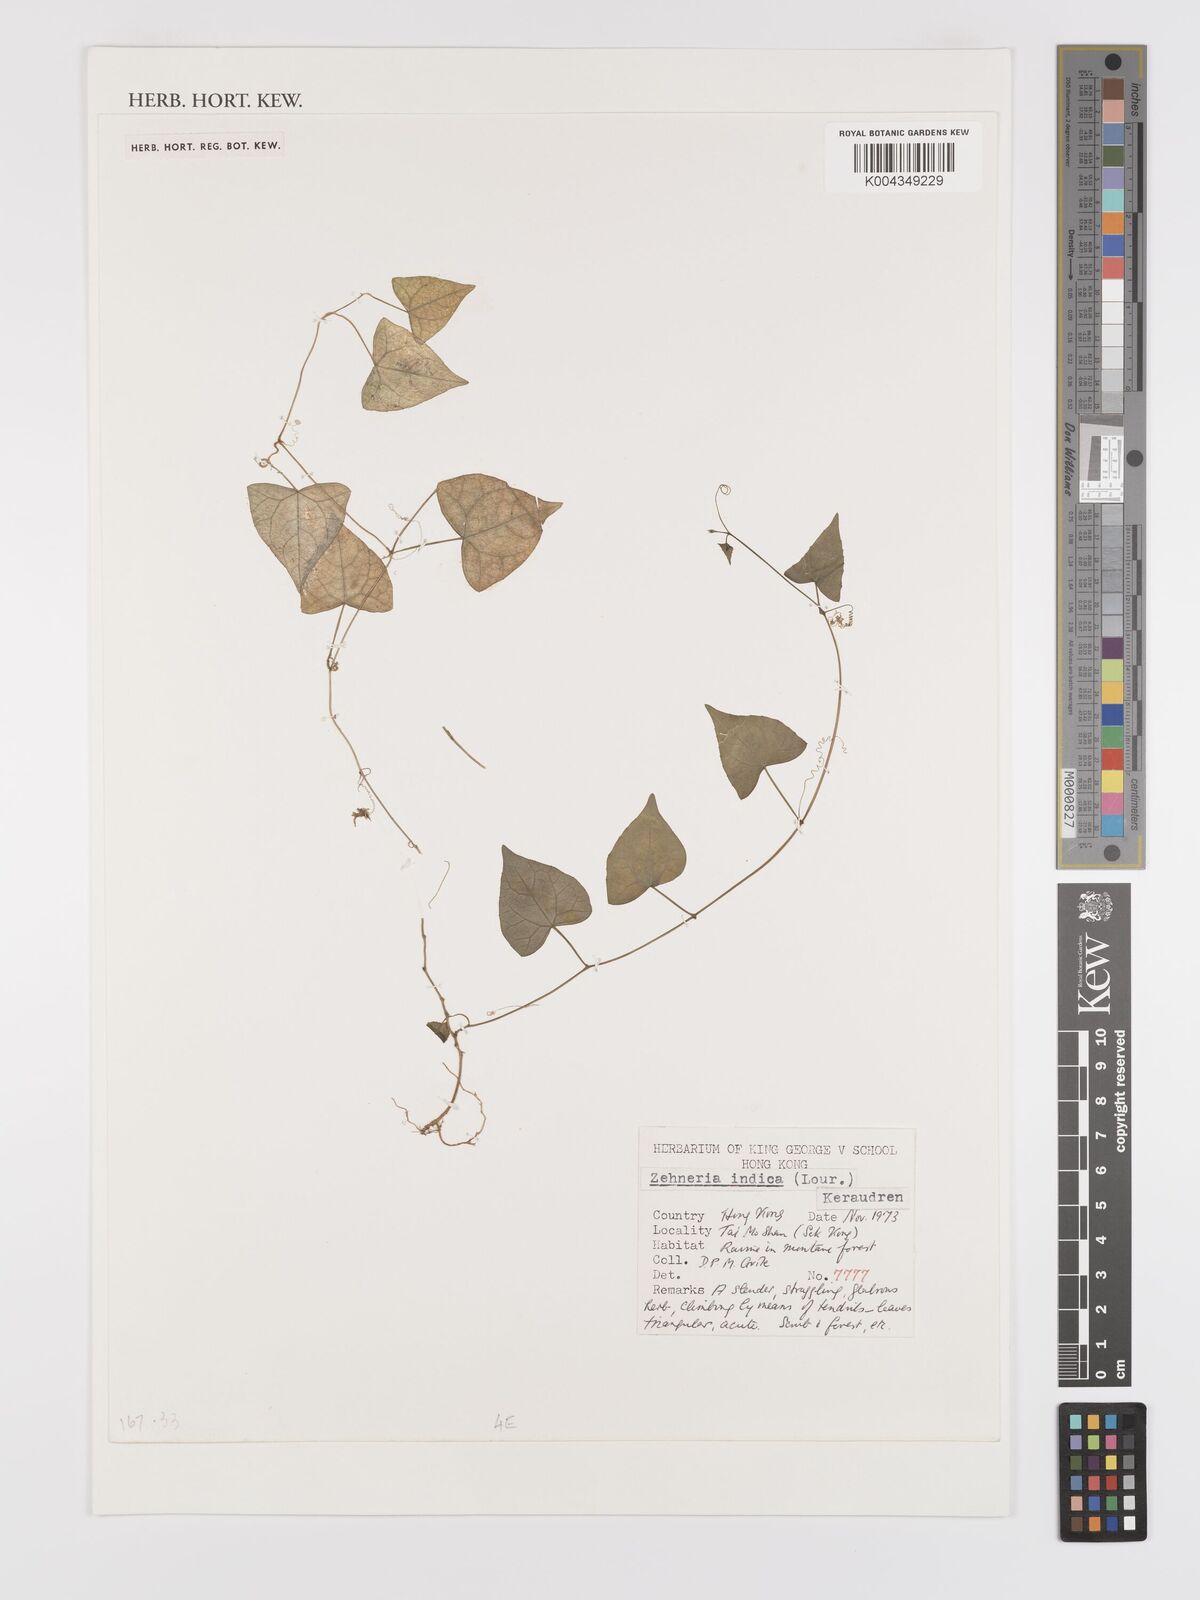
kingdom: Plantae
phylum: Tracheophyta
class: Magnoliopsida
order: Cucurbitales
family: Cucurbitaceae
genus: Zehneria
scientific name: Zehneria japonica
